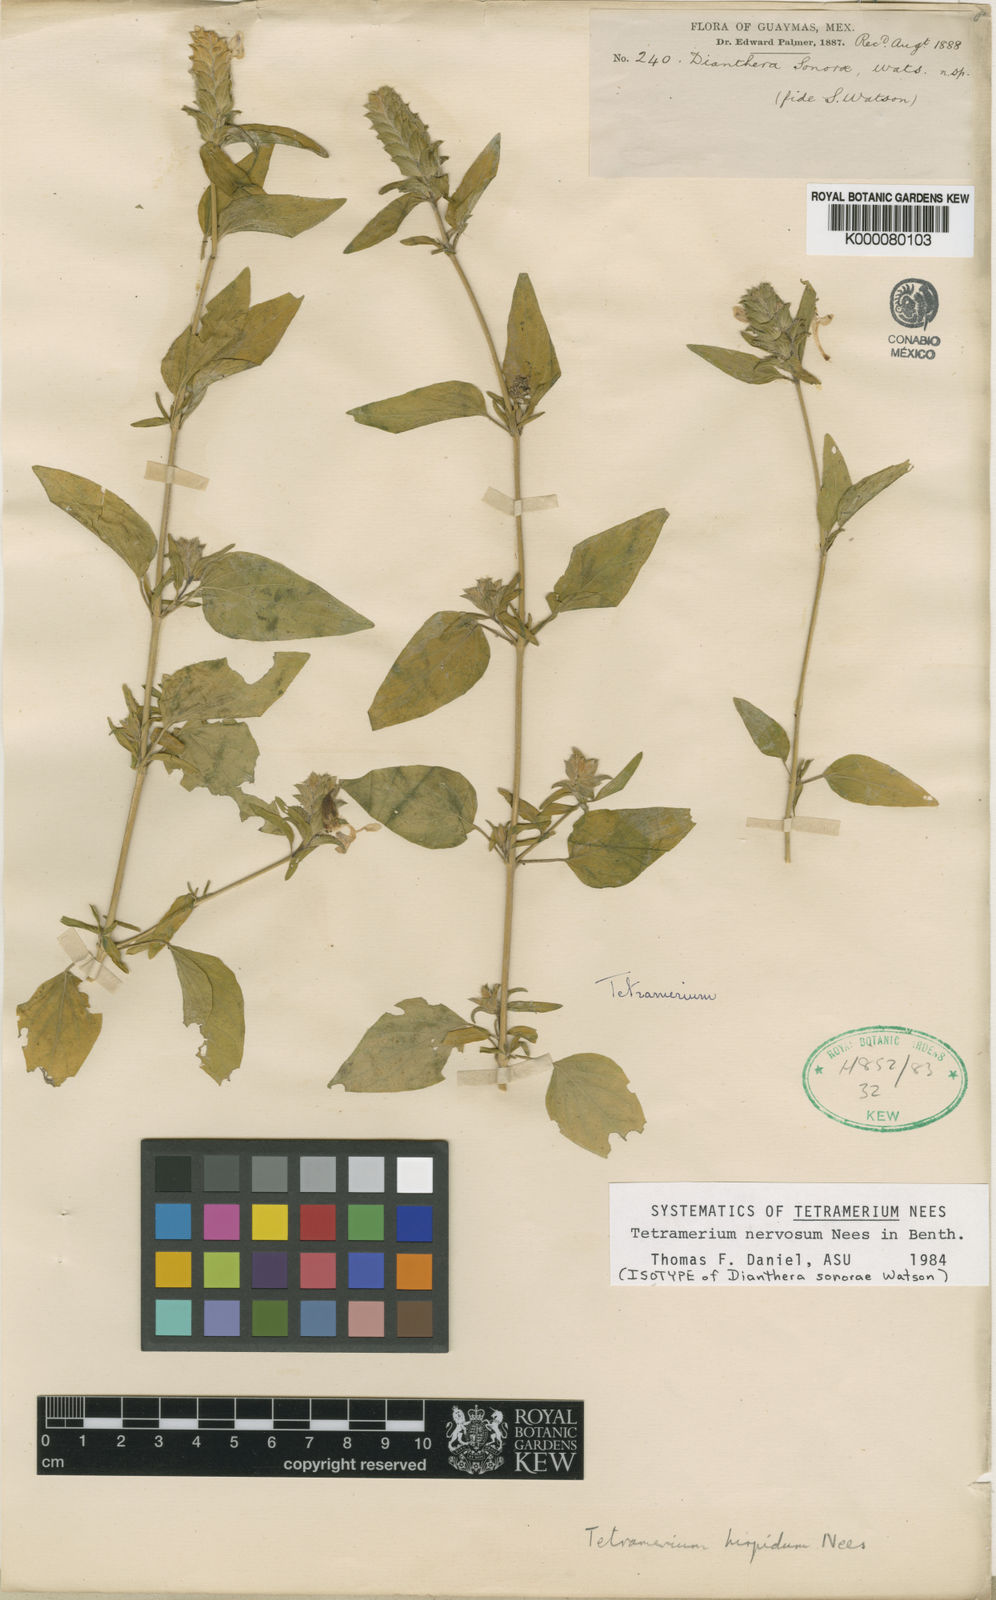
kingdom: Plantae
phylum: Tracheophyta
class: Magnoliopsida
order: Lamiales
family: Acanthaceae
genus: Tetramerium
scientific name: Tetramerium nervosum
